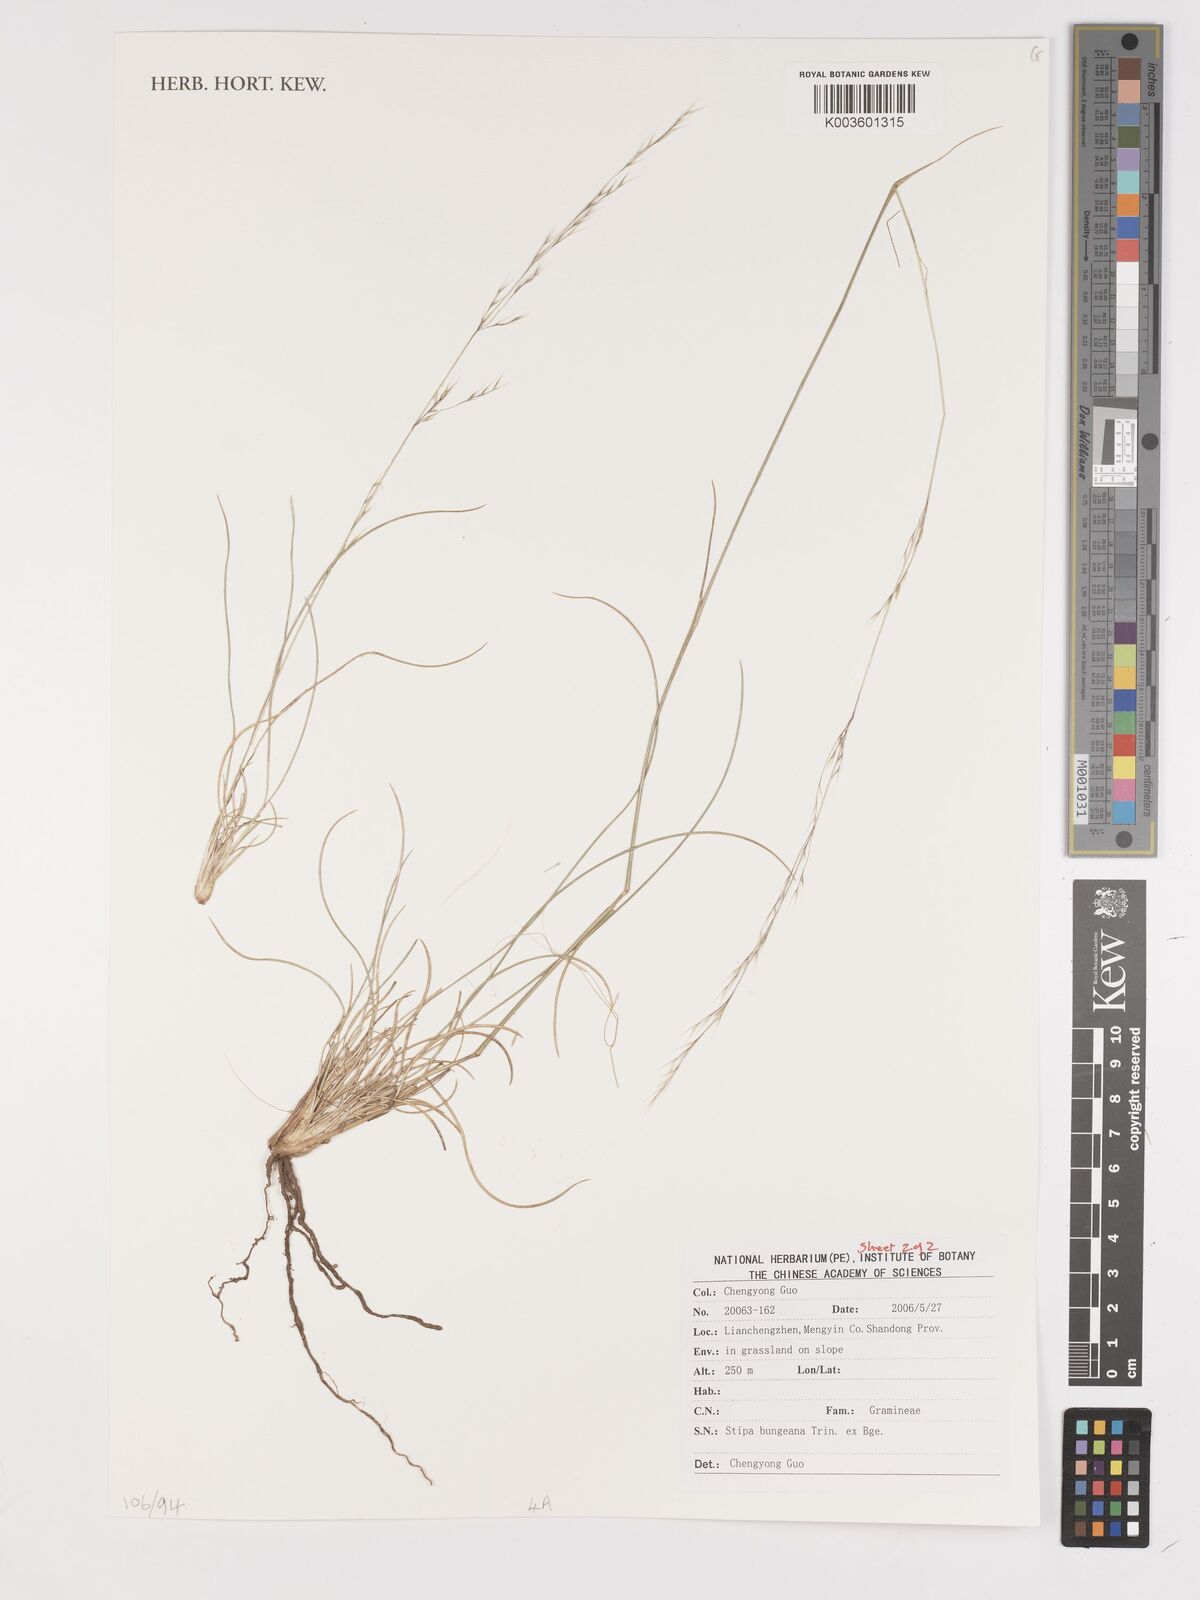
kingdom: Plantae
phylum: Tracheophyta
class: Liliopsida
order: Poales
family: Poaceae
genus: Stipa
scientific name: Stipa bungeana
